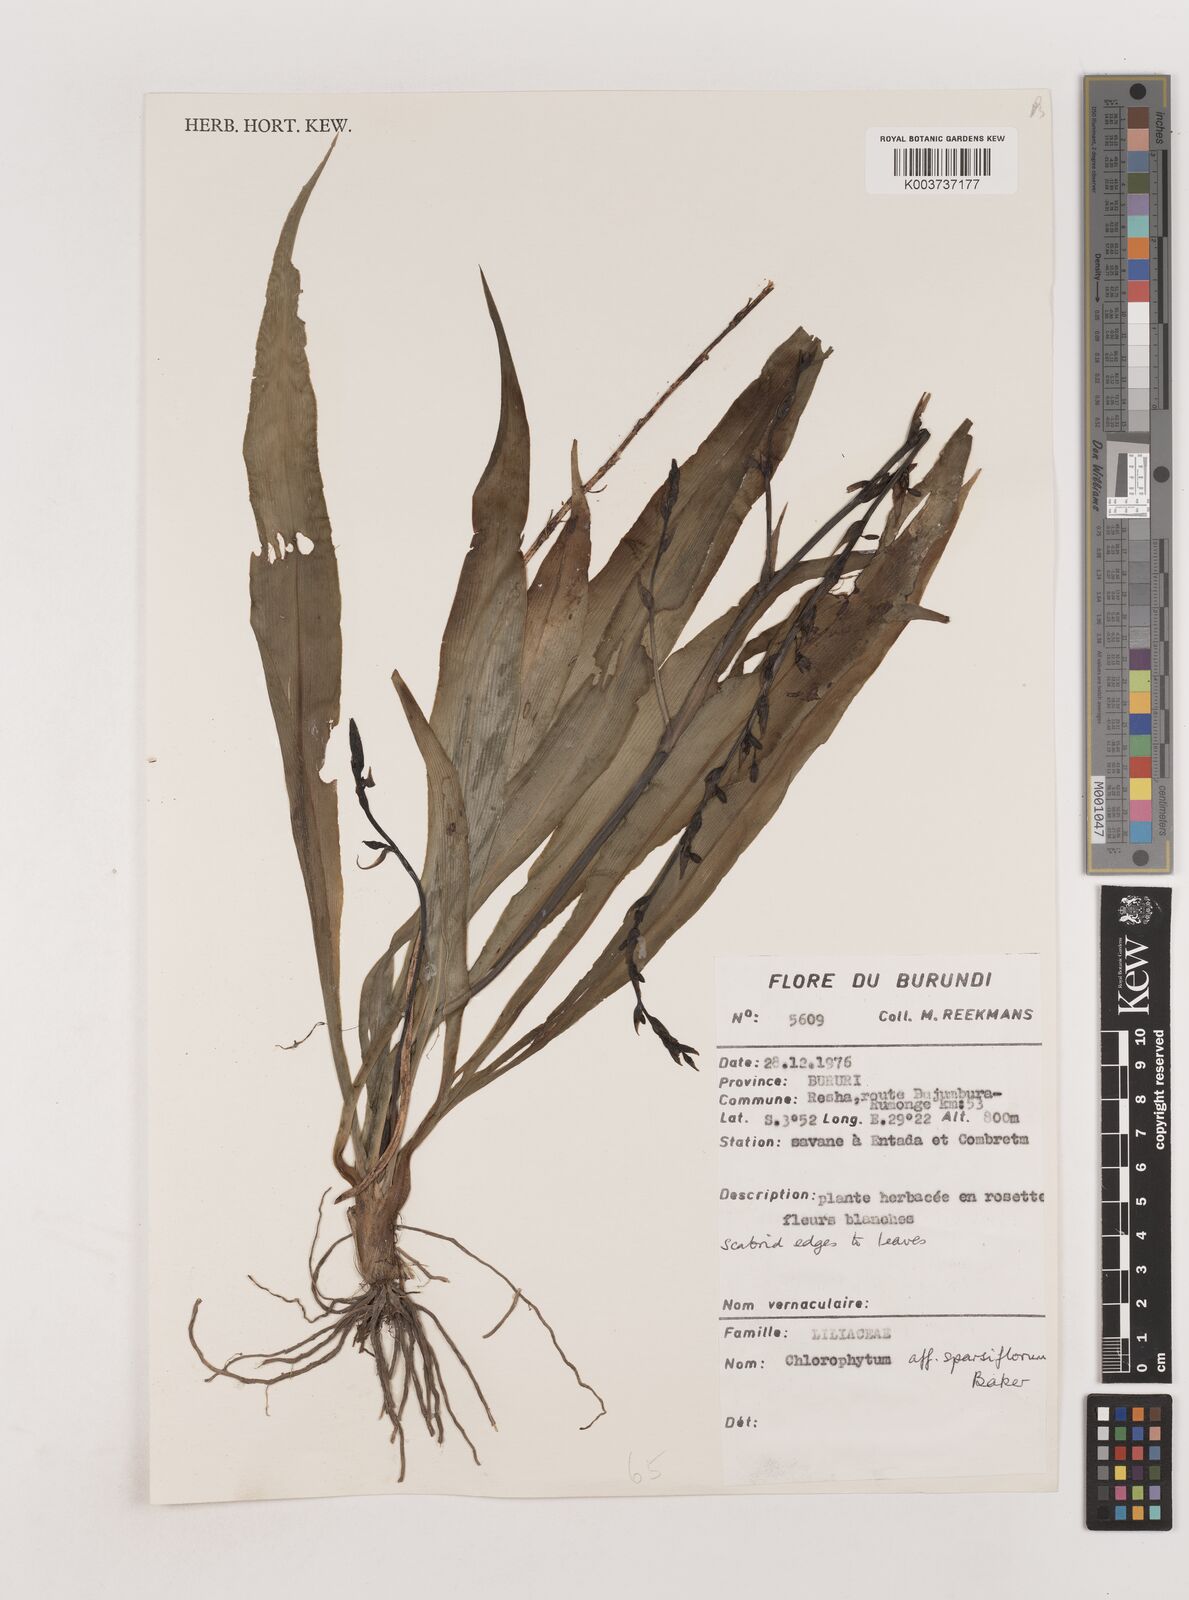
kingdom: Plantae
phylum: Tracheophyta
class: Liliopsida
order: Asparagales
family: Asparagaceae
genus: Chlorophytum
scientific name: Chlorophytum sparsiflorum
